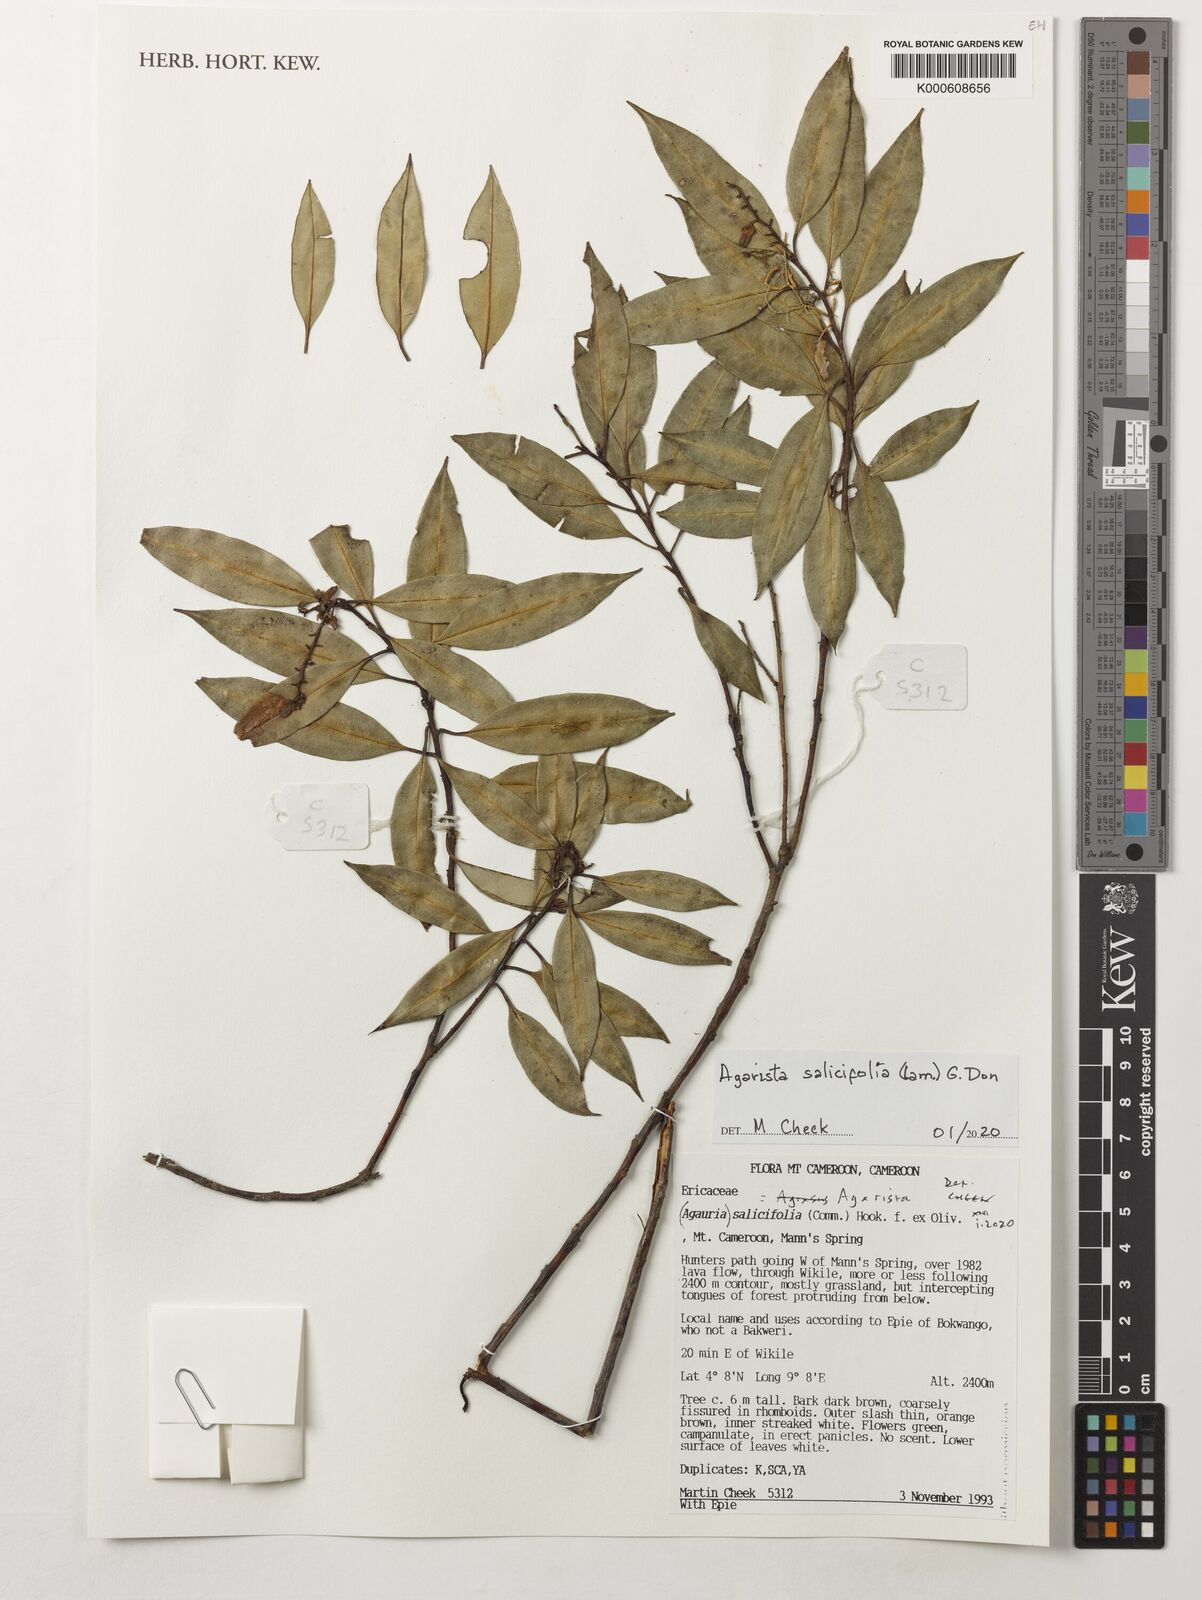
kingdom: Plantae
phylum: Tracheophyta
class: Magnoliopsida
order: Ericales
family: Ericaceae
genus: Agarista
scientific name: Agarista salicifolia
